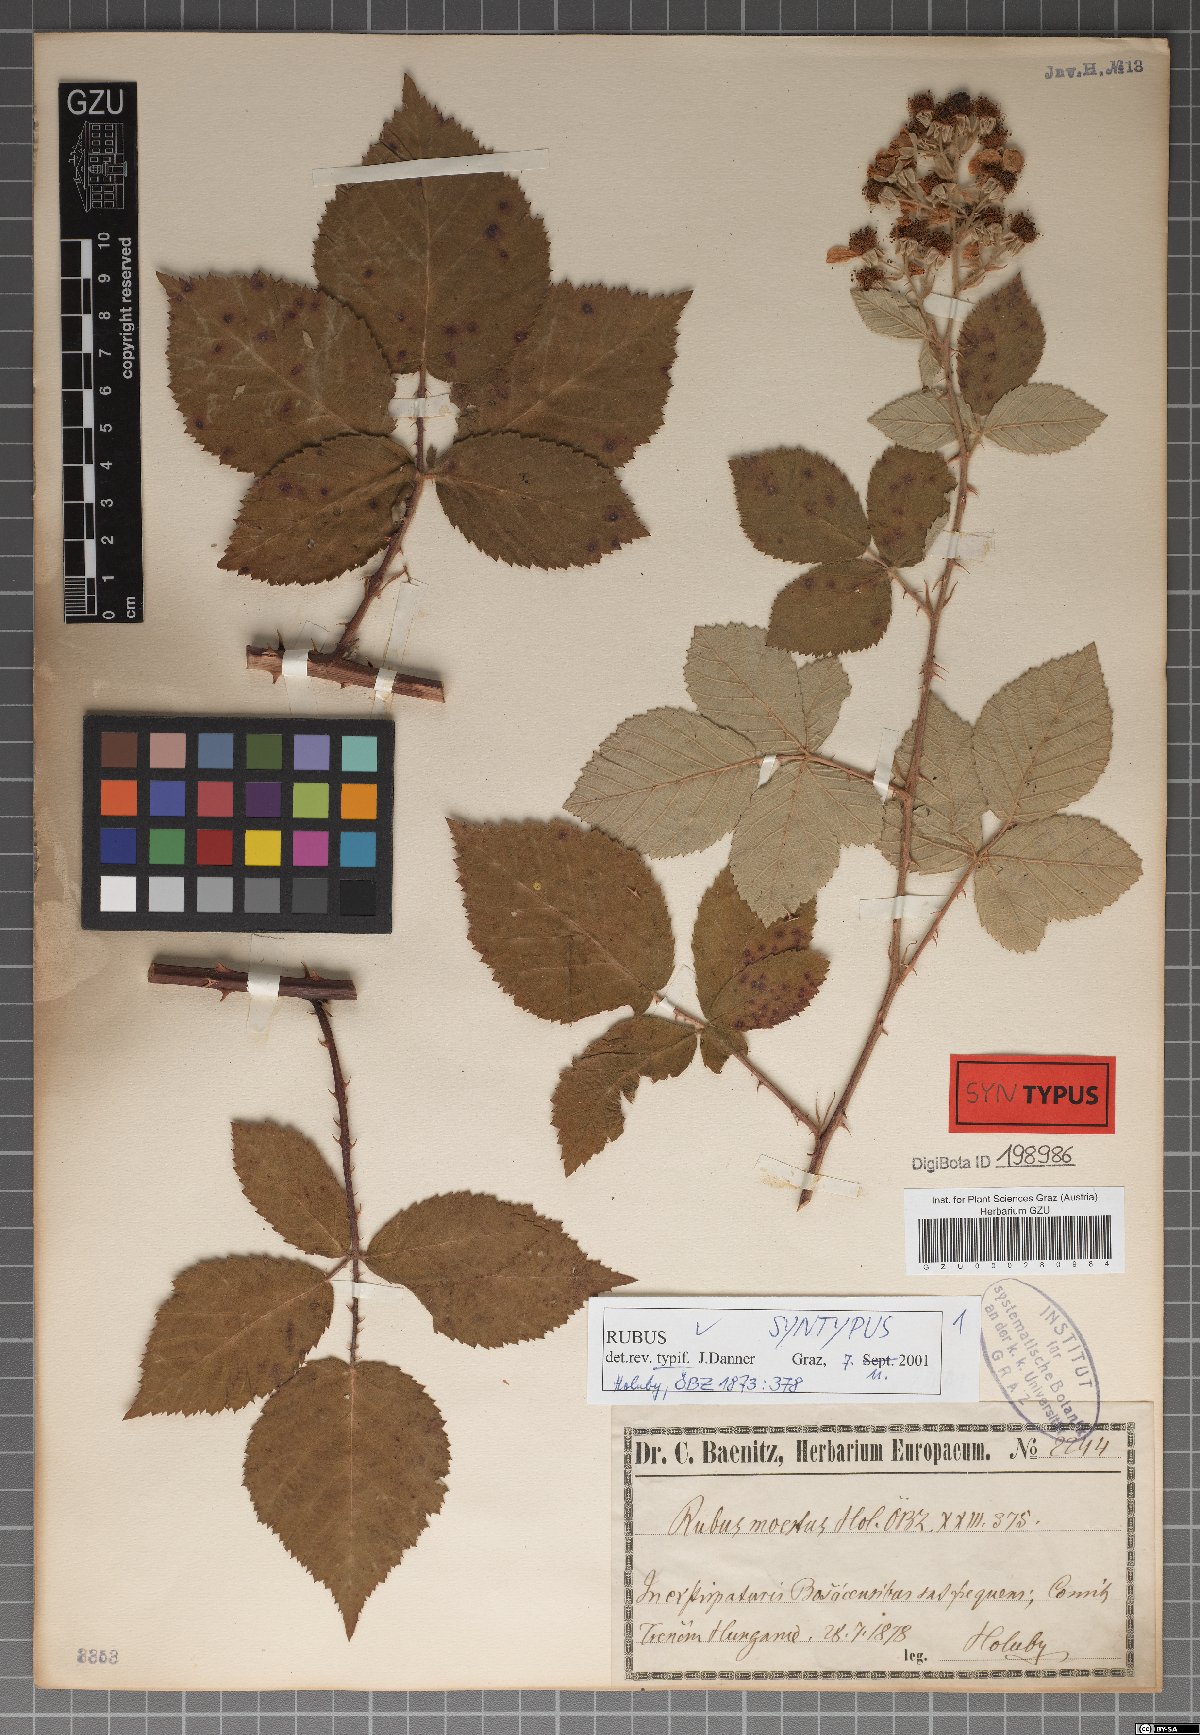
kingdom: Plantae
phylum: Tracheophyta
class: Magnoliopsida
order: Rosales
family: Rosaceae
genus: Rubus
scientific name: Rubus moestus
